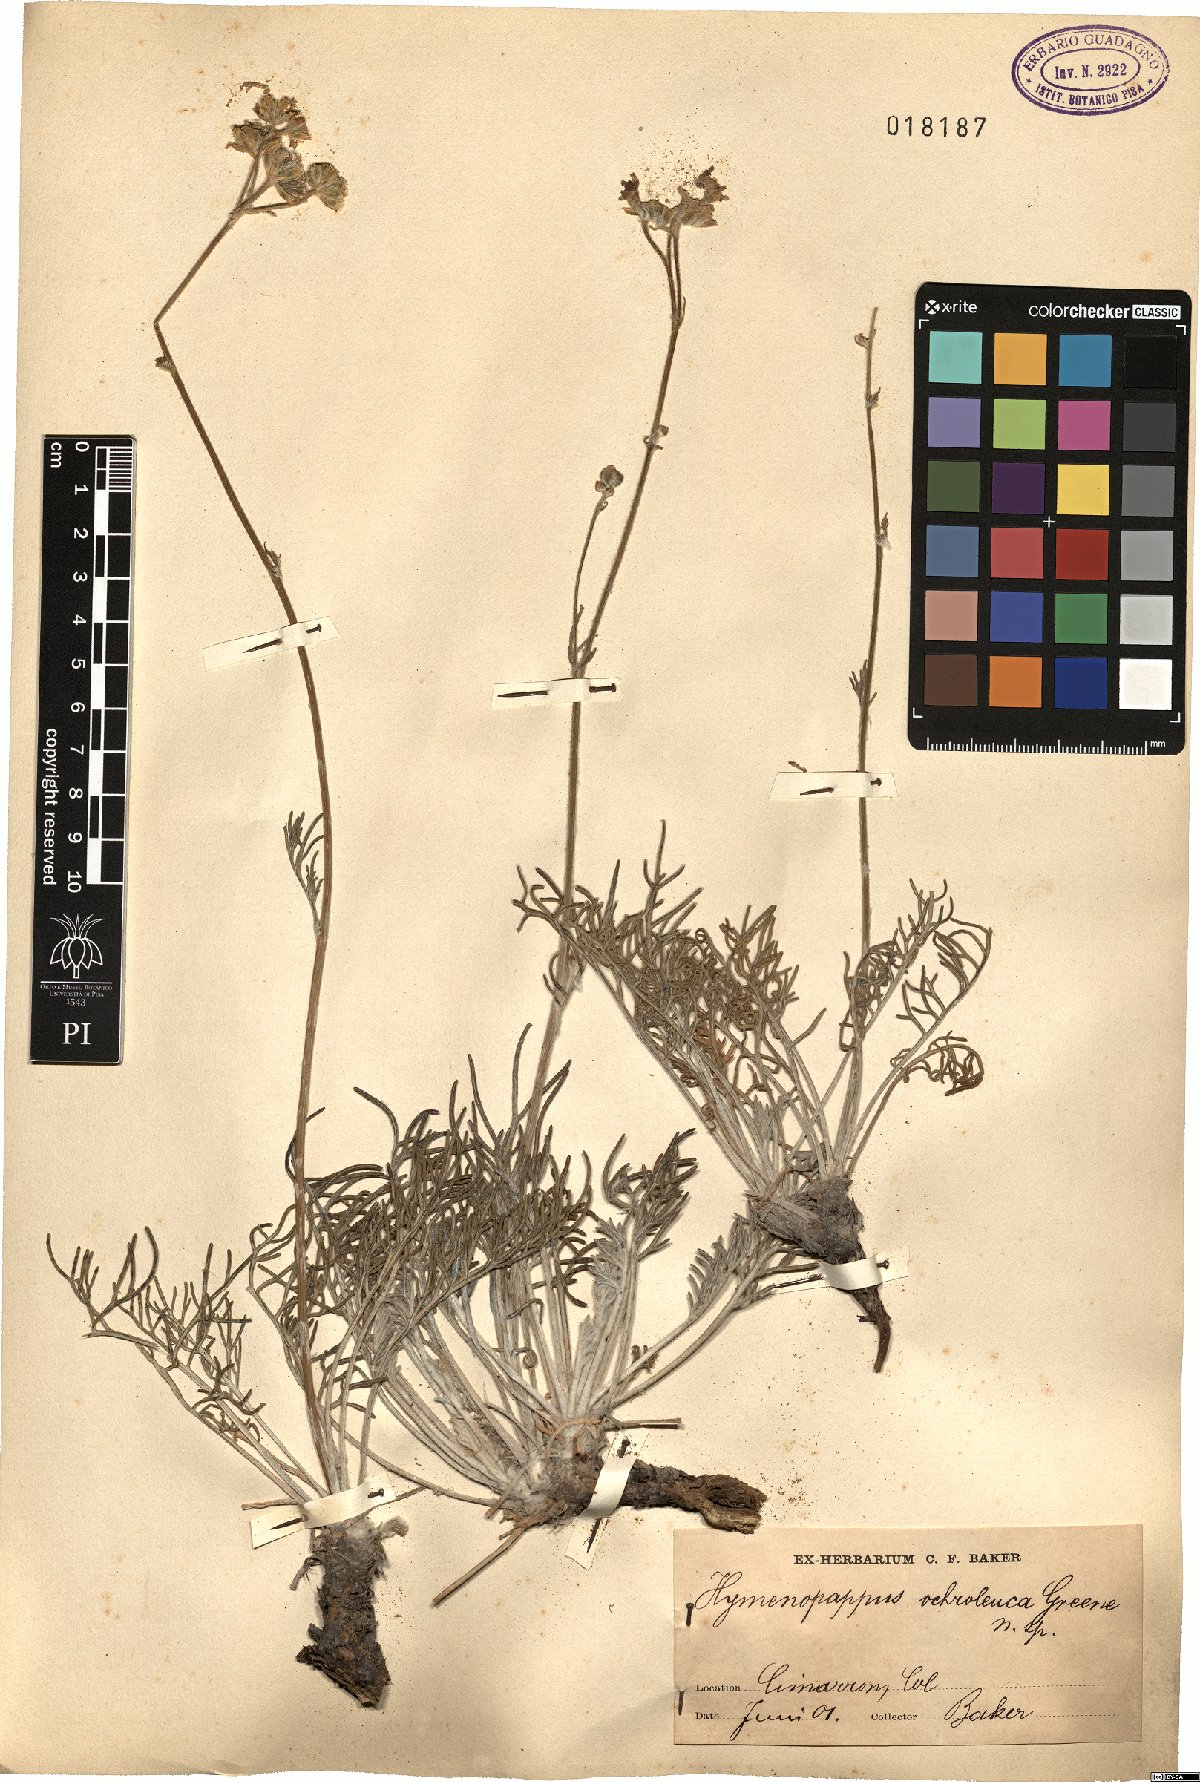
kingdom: Plantae
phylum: Tracheophyta
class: Magnoliopsida
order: Asterales
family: Asteraceae
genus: Hymenopappus
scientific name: Hymenopappus ochroleucus
